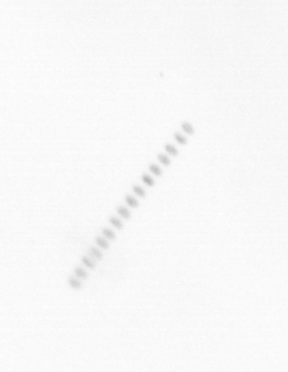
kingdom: Chromista
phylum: Ochrophyta
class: Bacillariophyceae
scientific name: Bacillariophyceae
